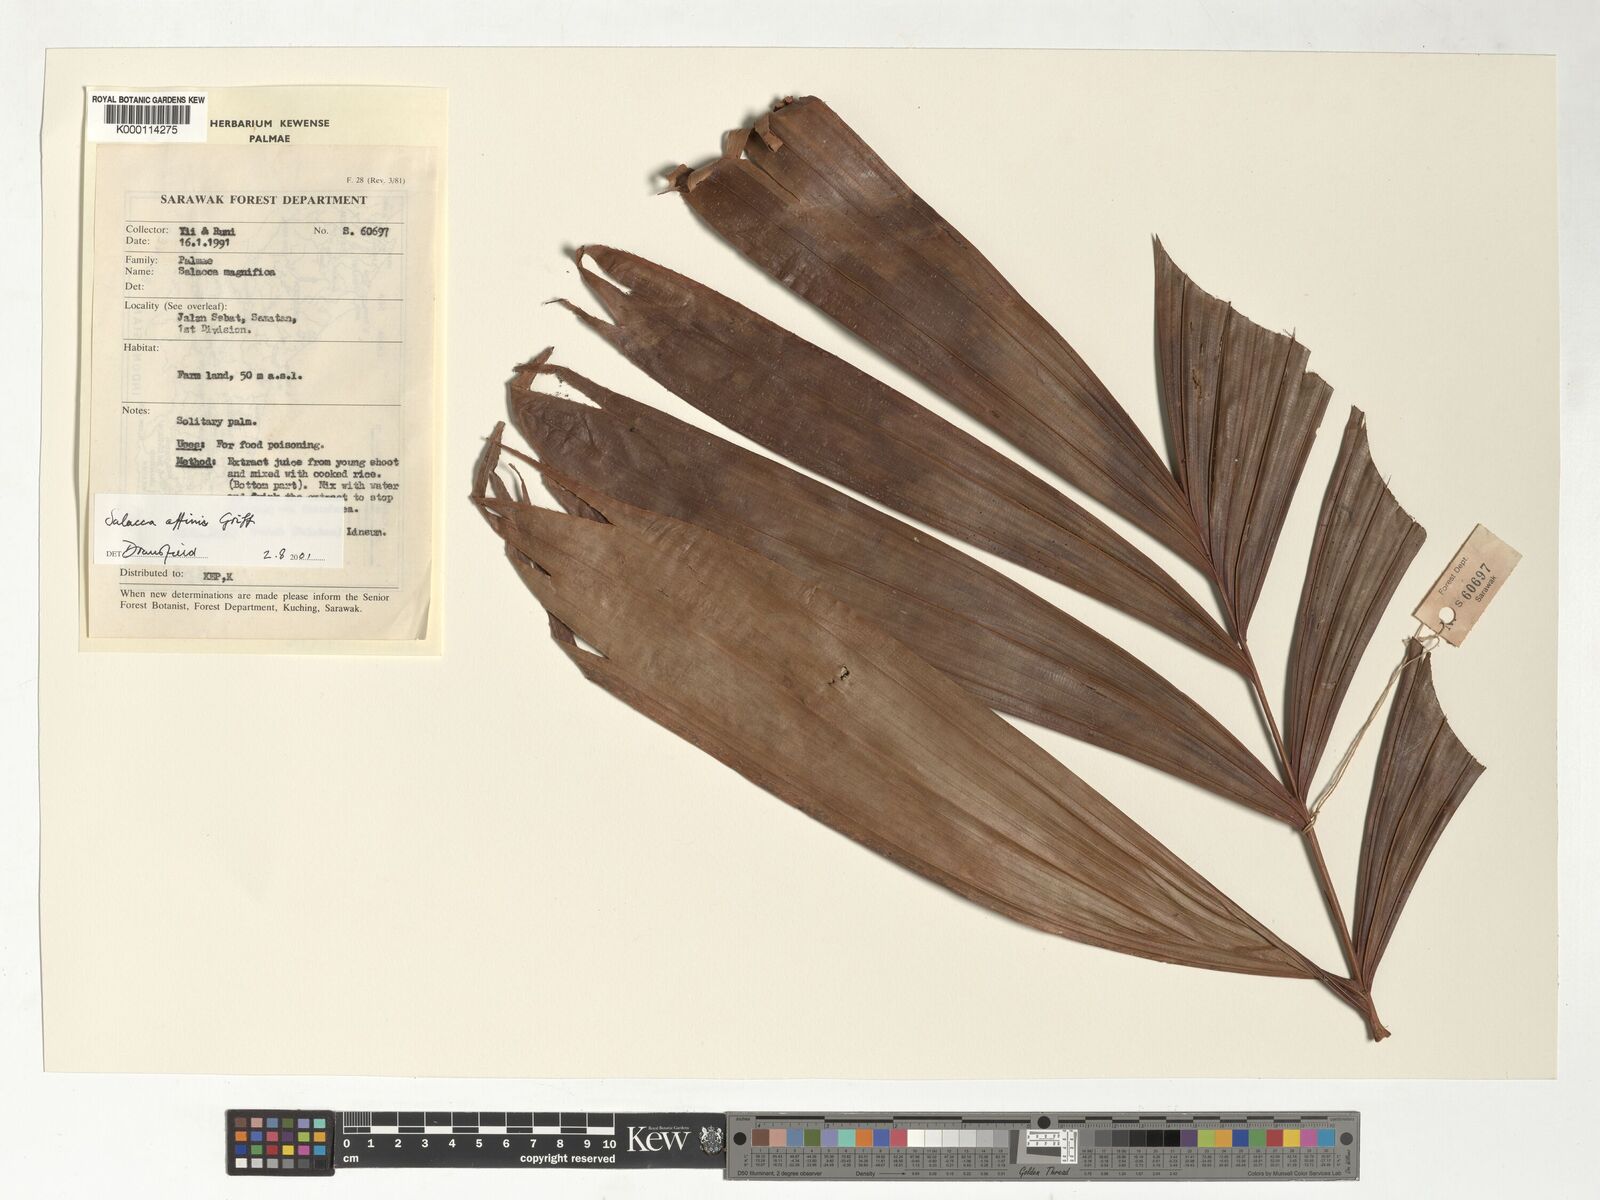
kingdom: Plantae
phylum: Tracheophyta
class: Liliopsida
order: Arecales
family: Arecaceae
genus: Salacca
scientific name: Salacca affinis
